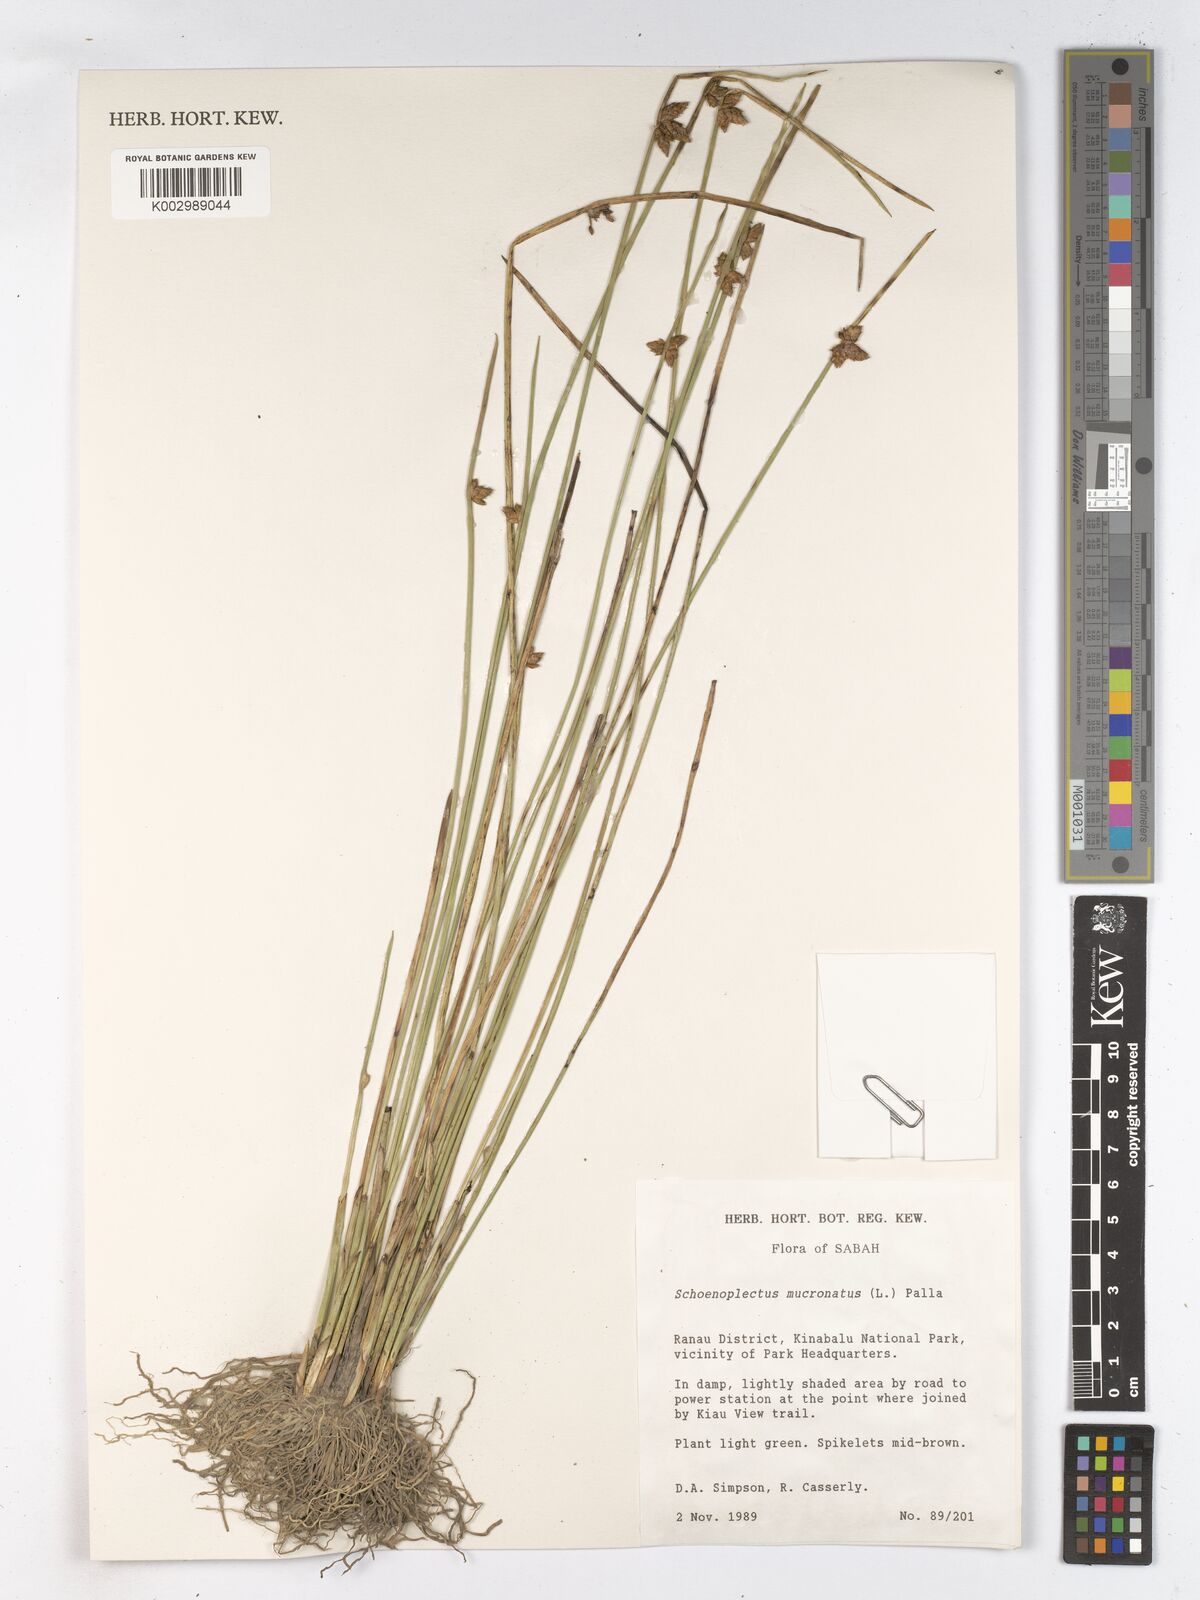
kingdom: Plantae
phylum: Tracheophyta
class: Liliopsida
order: Poales
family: Cyperaceae
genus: Schoenoplectiella
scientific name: Schoenoplectiella mucronata
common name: Bog bulrush
